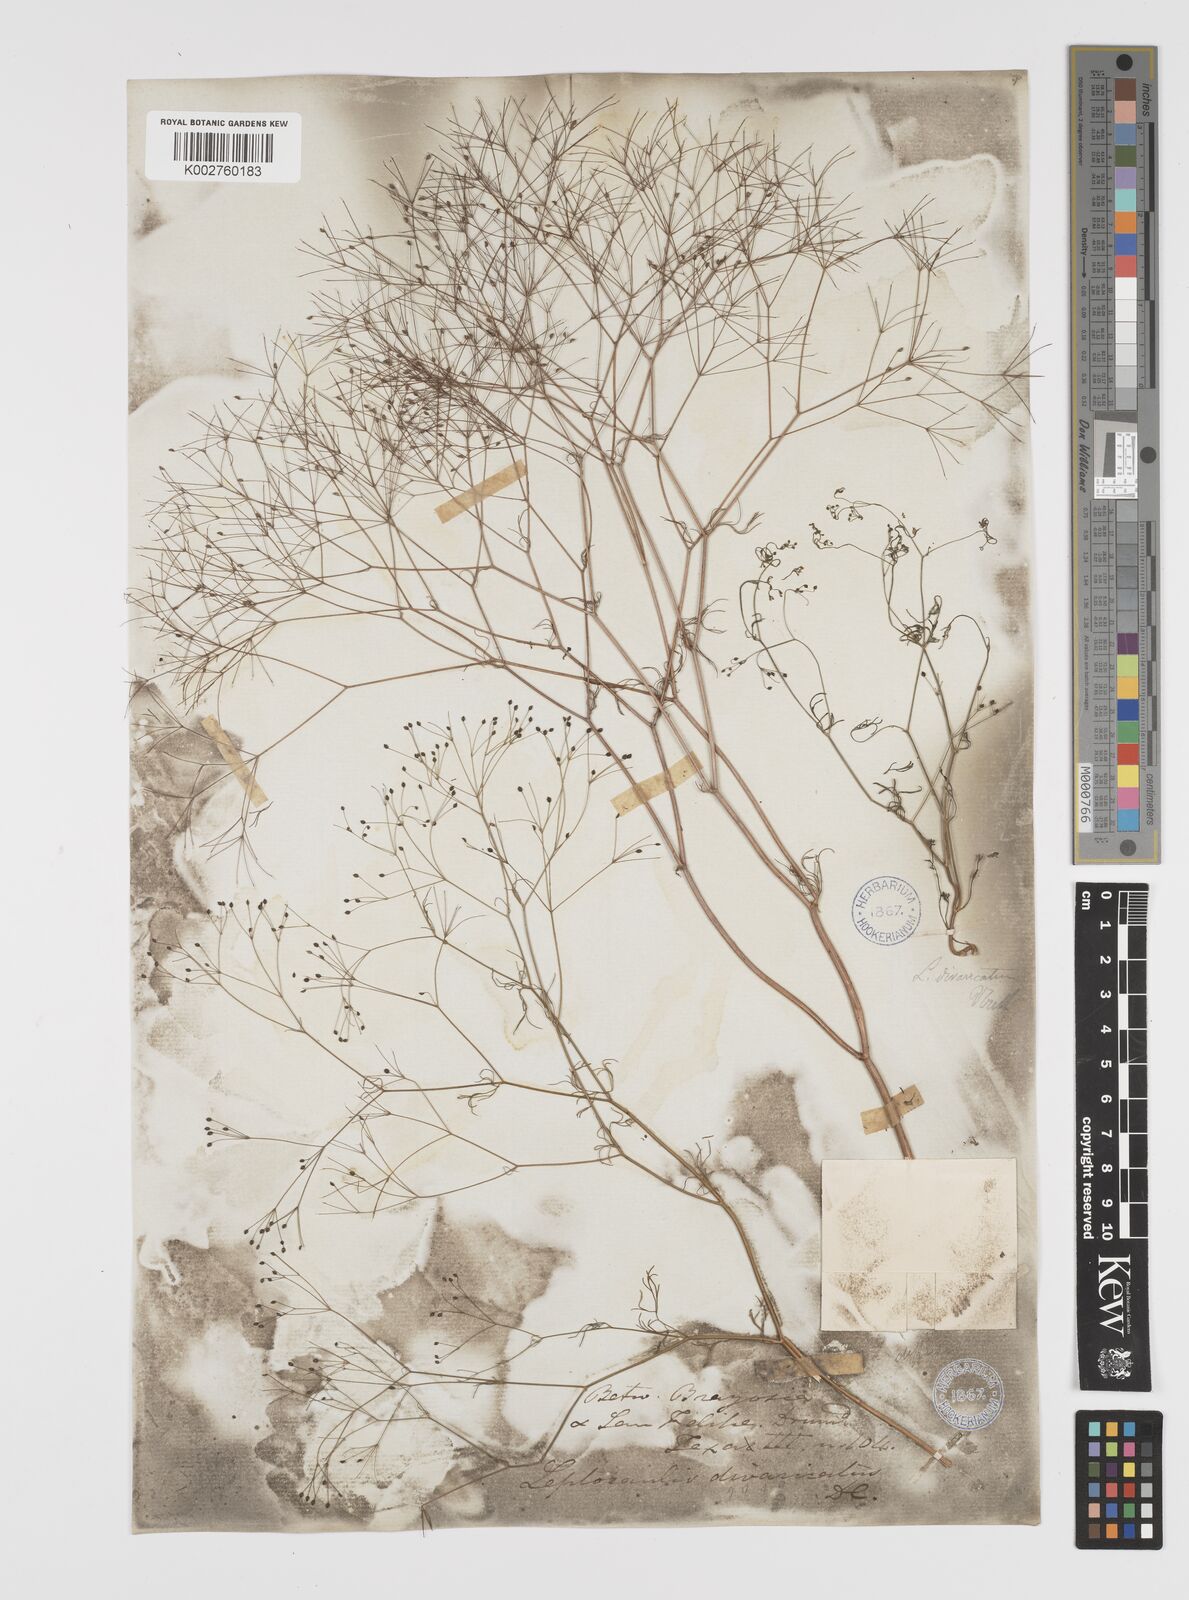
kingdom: Plantae
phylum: Tracheophyta
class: Magnoliopsida
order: Apiales
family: Apiaceae
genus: Spermolepis
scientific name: Spermolepis divaricata
